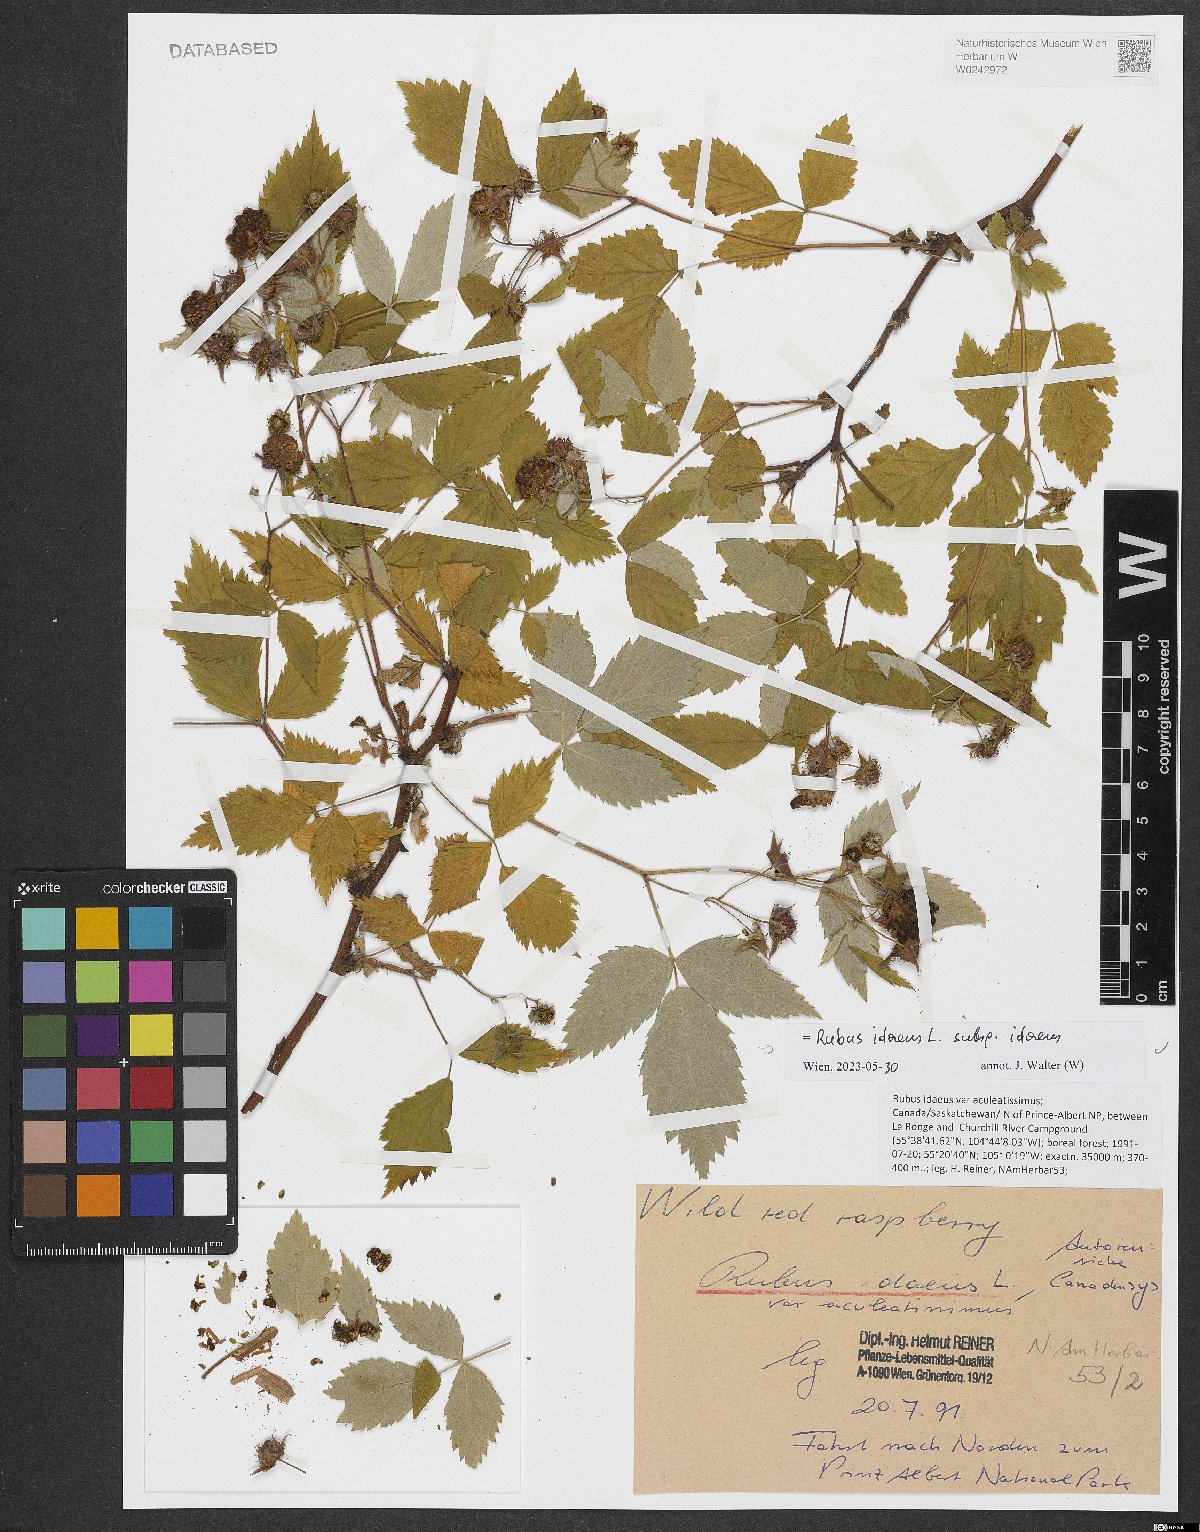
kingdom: Plantae
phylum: Tracheophyta
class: Magnoliopsida
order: Rosales
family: Rosaceae
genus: Rubus
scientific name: Rubus idaeus
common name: Raspberry
